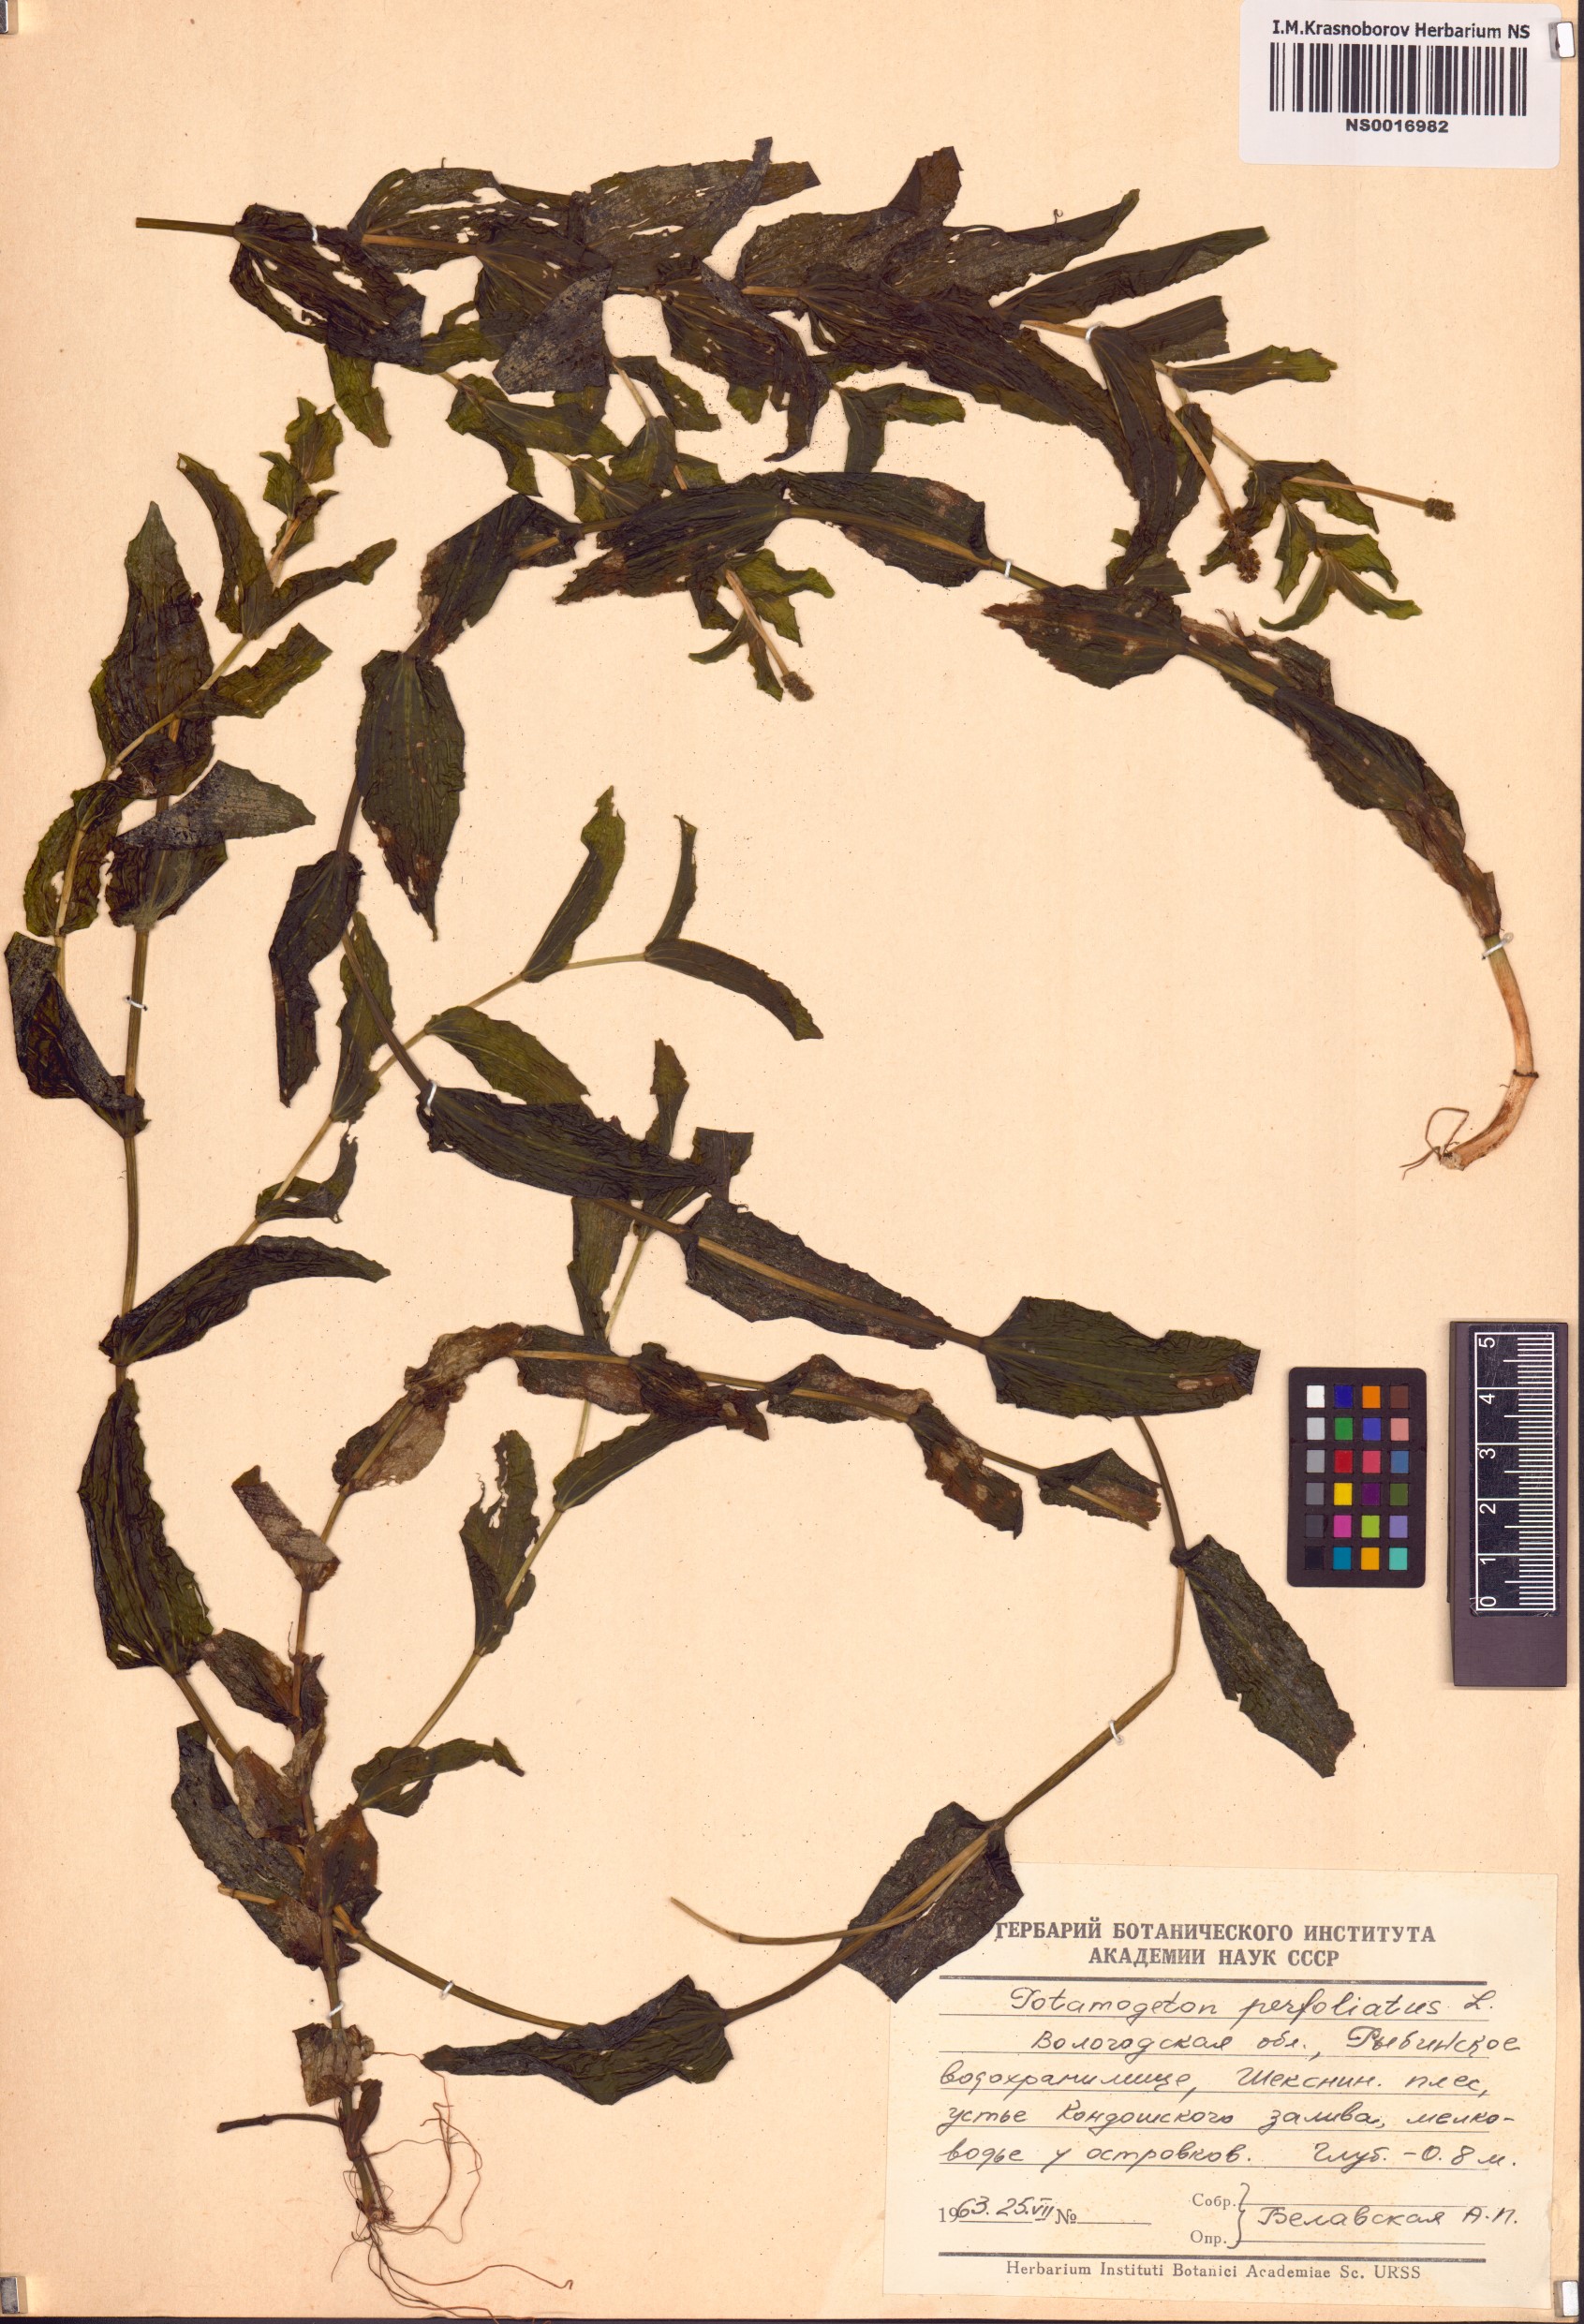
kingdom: Plantae
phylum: Tracheophyta
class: Liliopsida
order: Alismatales
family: Potamogetonaceae
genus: Potamogeton
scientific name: Potamogeton perfoliatus
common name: Perfoliate pondweed
